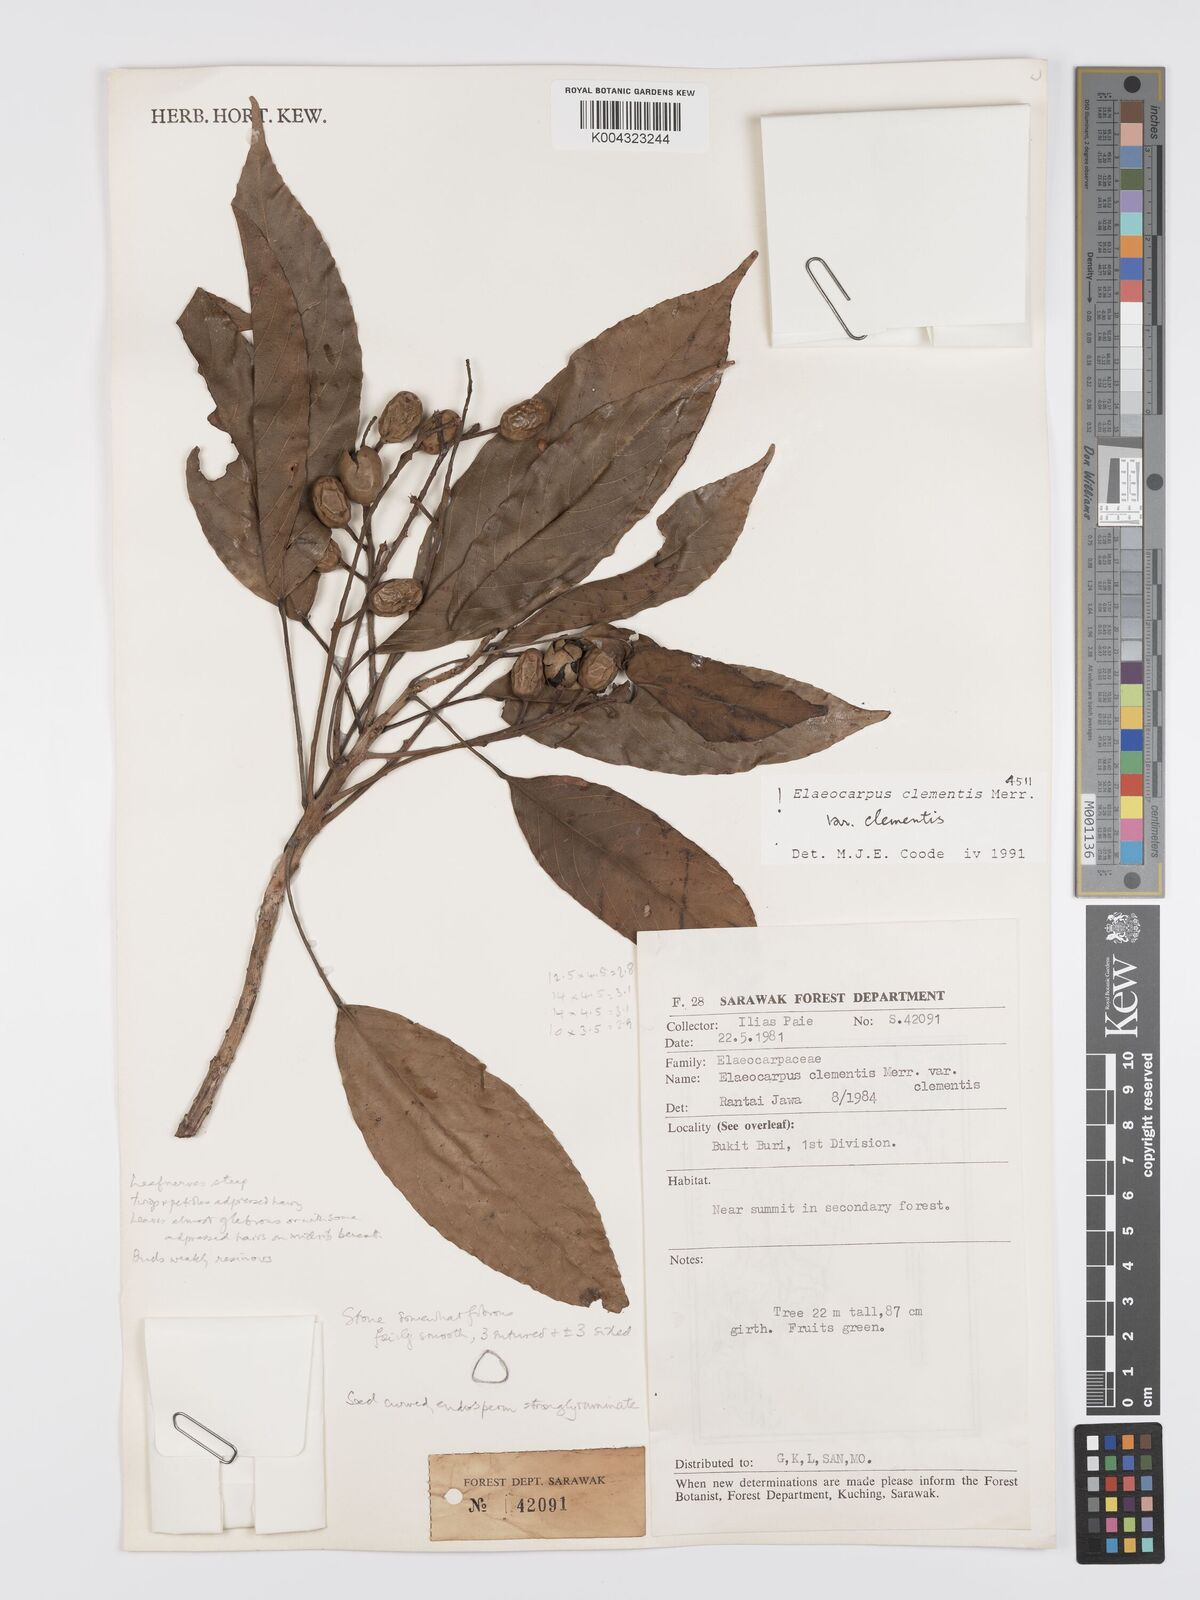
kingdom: Plantae
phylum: Tracheophyta
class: Magnoliopsida
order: Oxalidales
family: Elaeocarpaceae
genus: Elaeocarpus
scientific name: Elaeocarpus clementis
